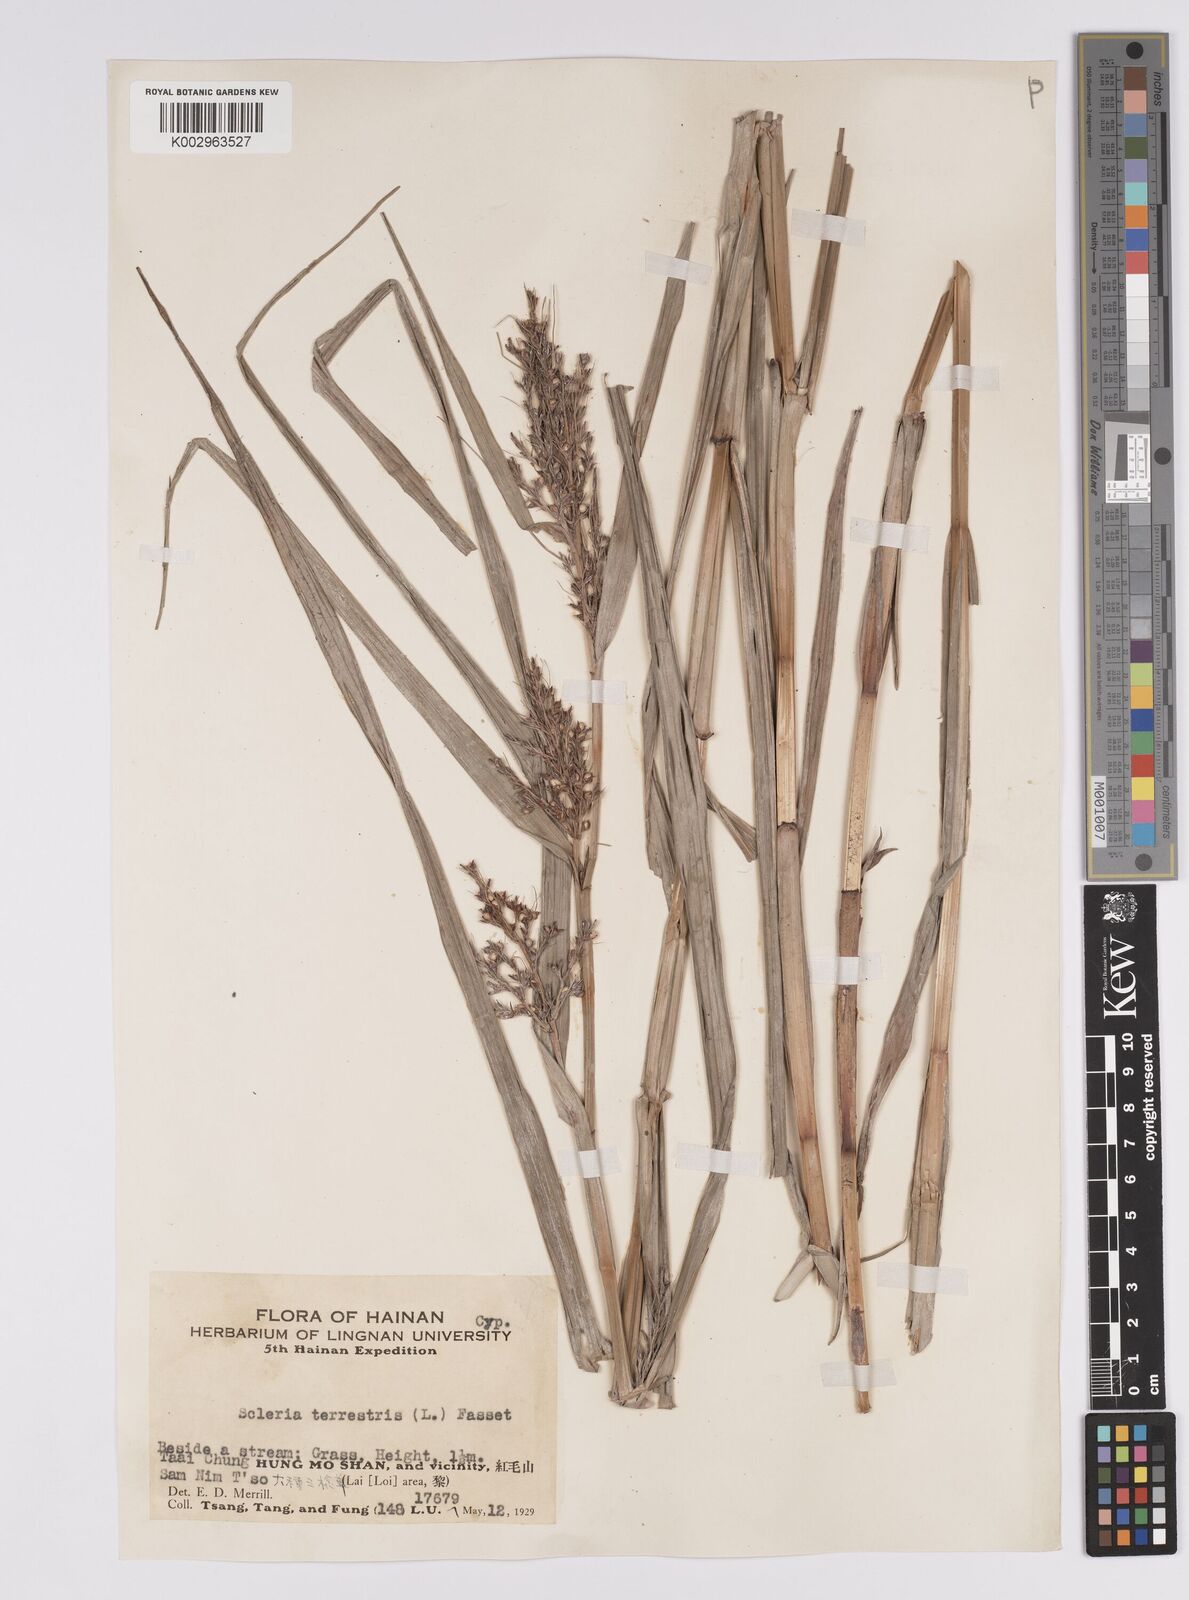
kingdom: Plantae
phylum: Tracheophyta
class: Liliopsida
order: Poales
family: Cyperaceae
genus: Scleria
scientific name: Scleria terrestris
